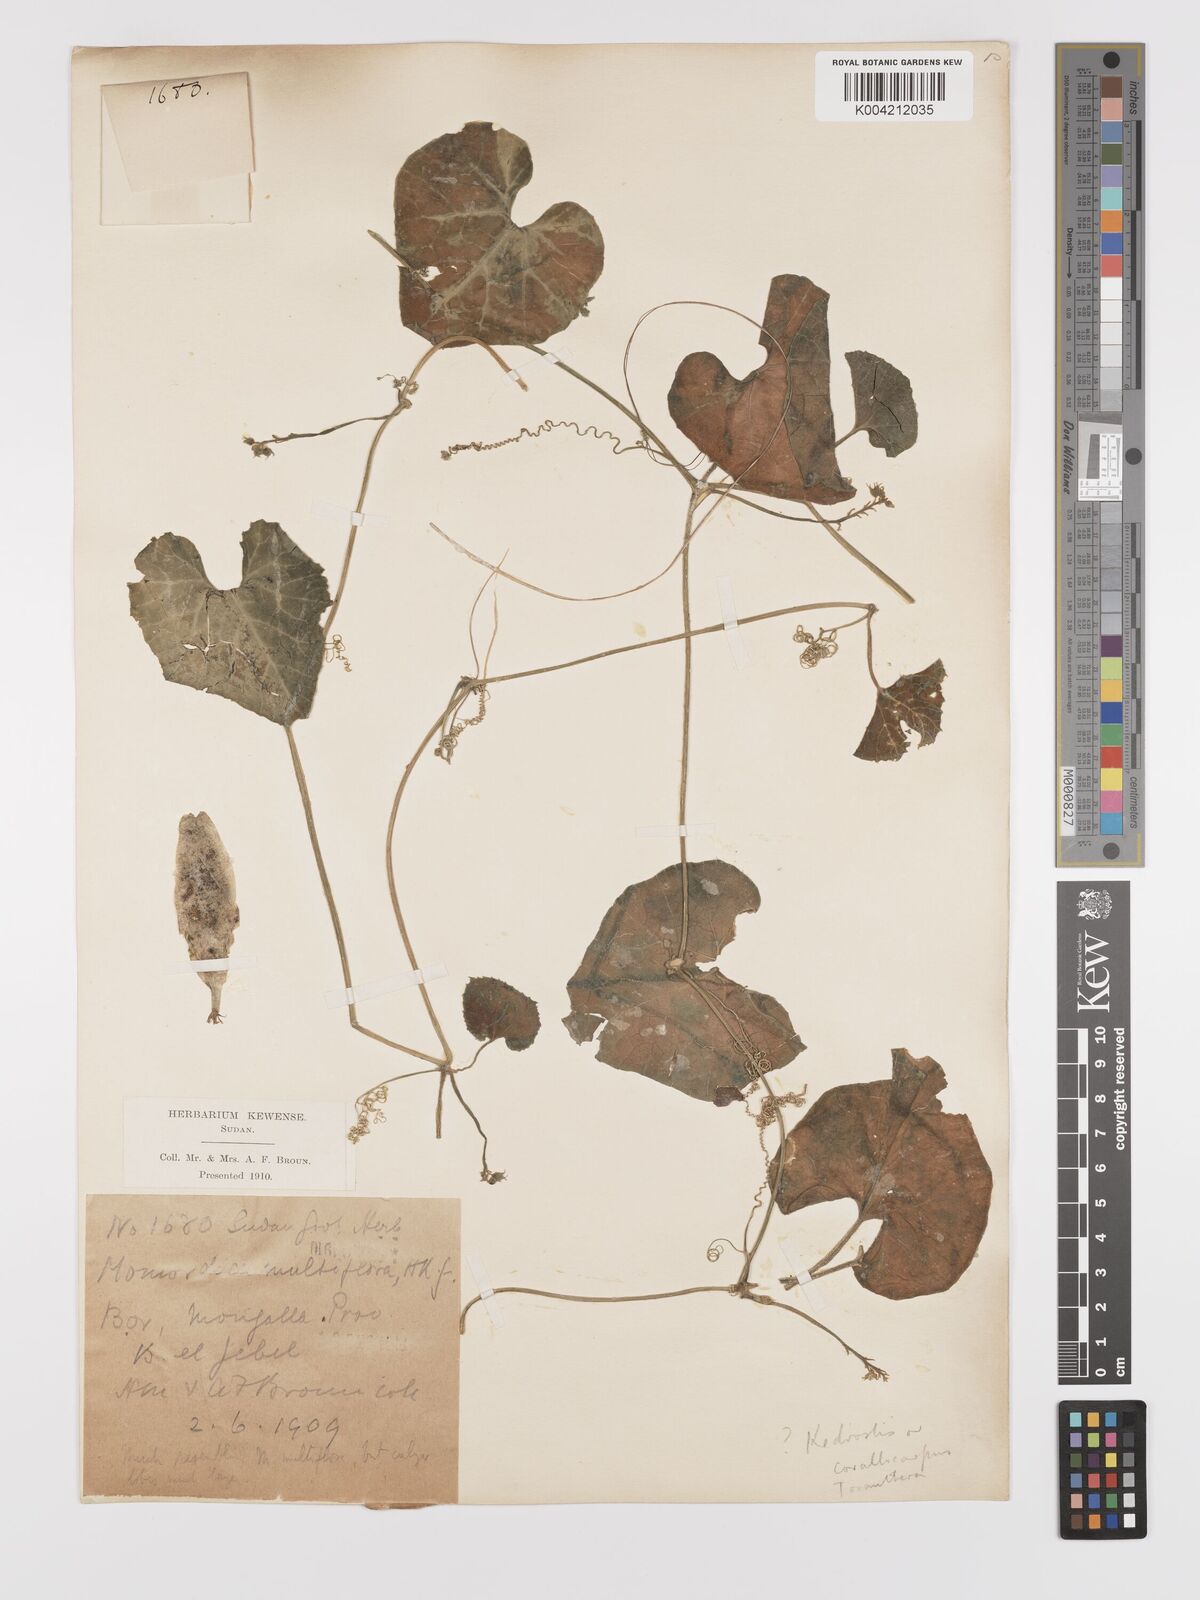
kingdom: Plantae
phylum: Tracheophyta
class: Magnoliopsida
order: Cucurbitales
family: Cucurbitaceae
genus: Kedrostis
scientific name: Kedrostis leloja
